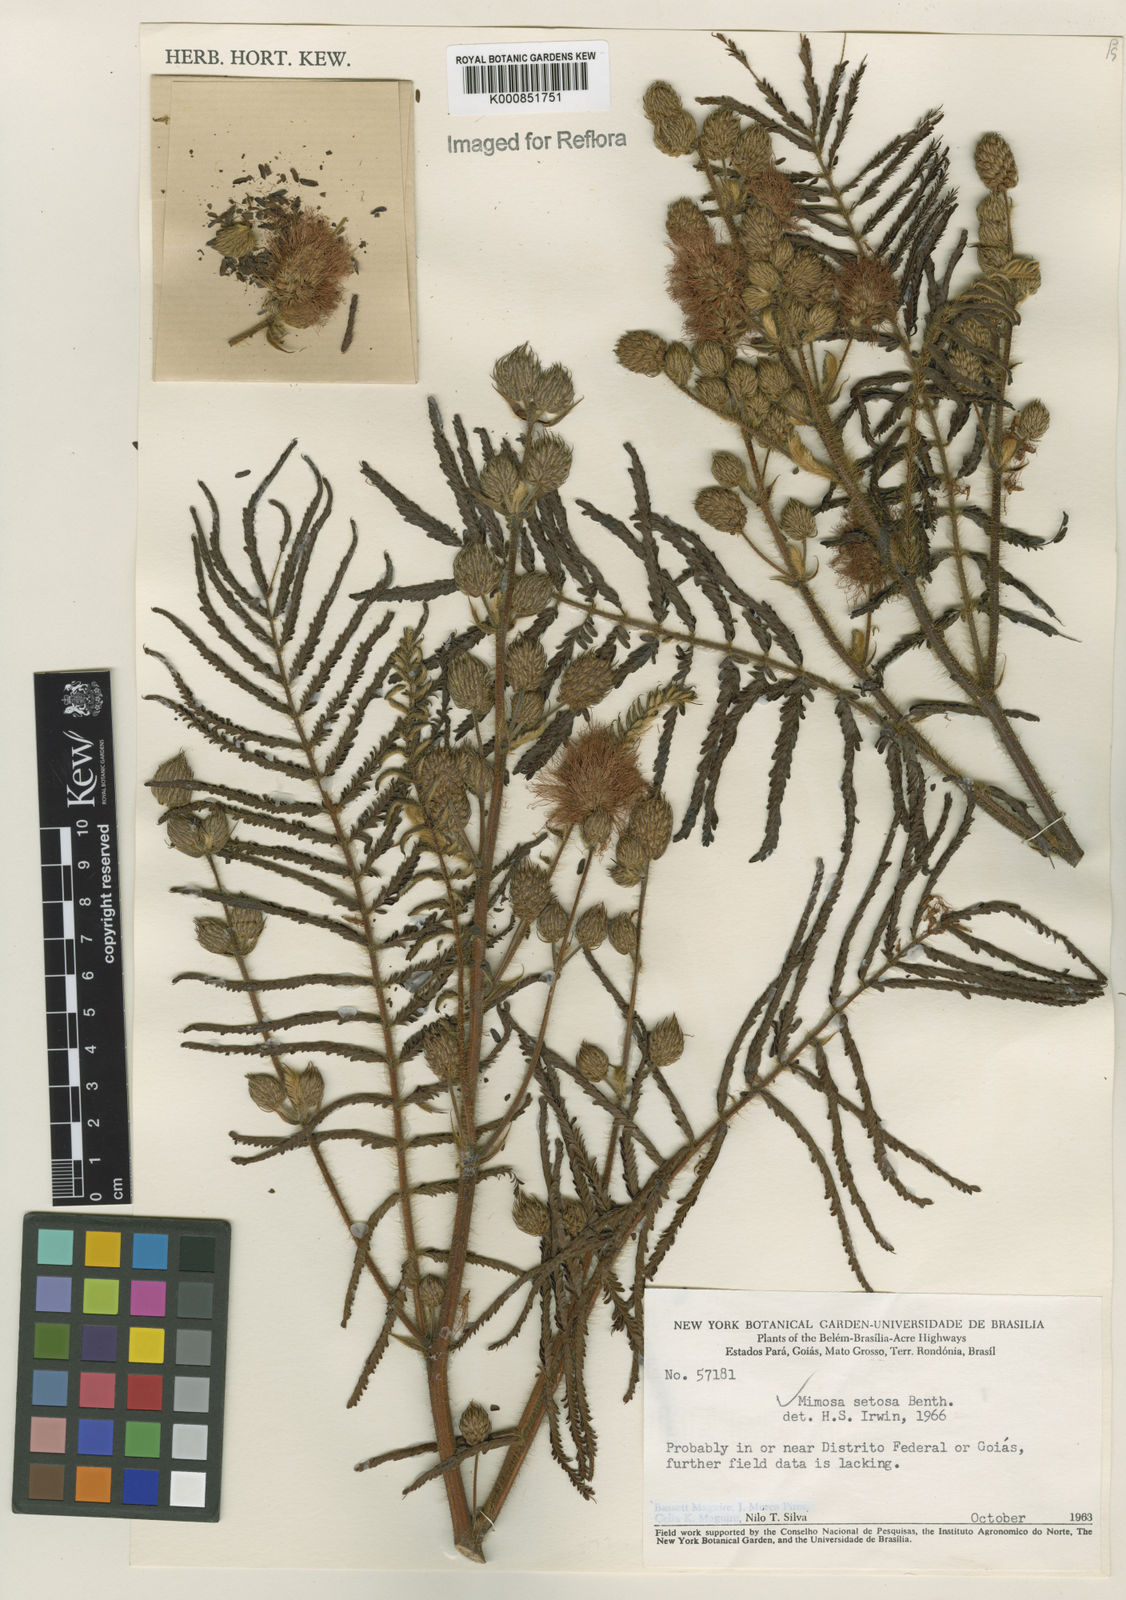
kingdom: Plantae
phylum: Tracheophyta
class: Magnoliopsida
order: Fabales
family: Fabaceae
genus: Mimosa
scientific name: Mimosa urbica
